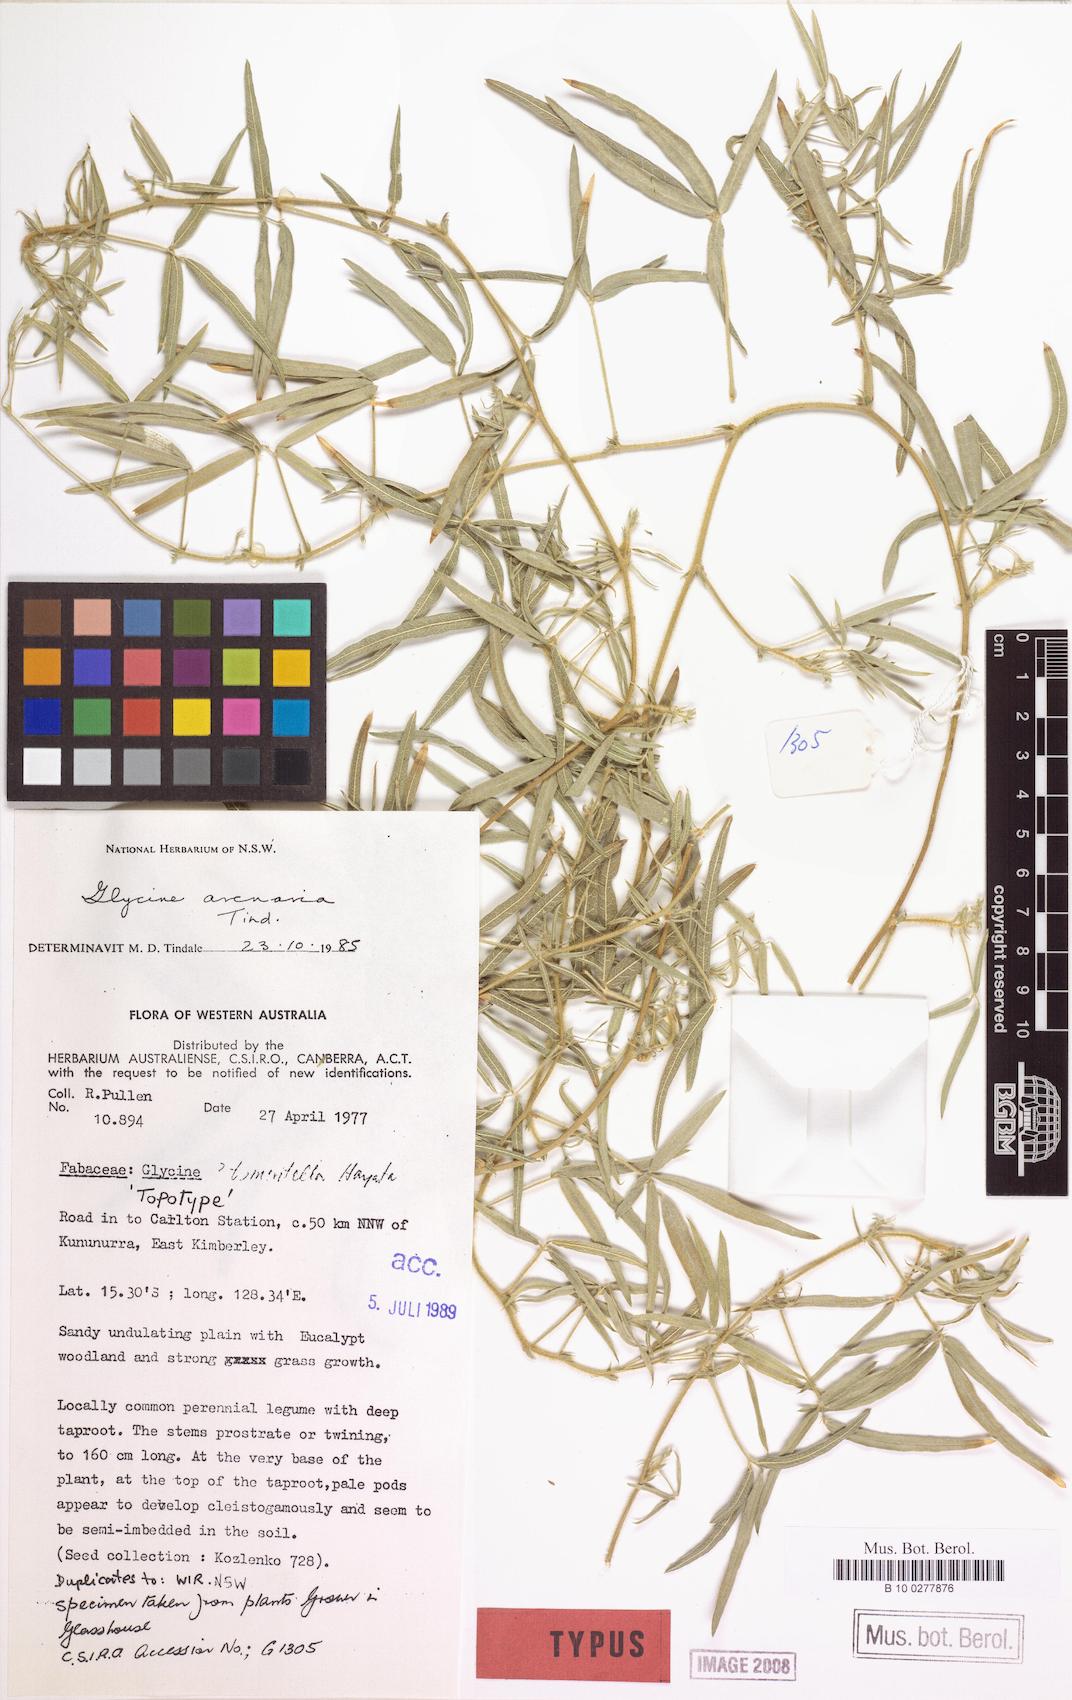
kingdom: Plantae
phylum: Tracheophyta
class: Magnoliopsida
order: Fabales
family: Fabaceae
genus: Glycine
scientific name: Glycine arenaria
